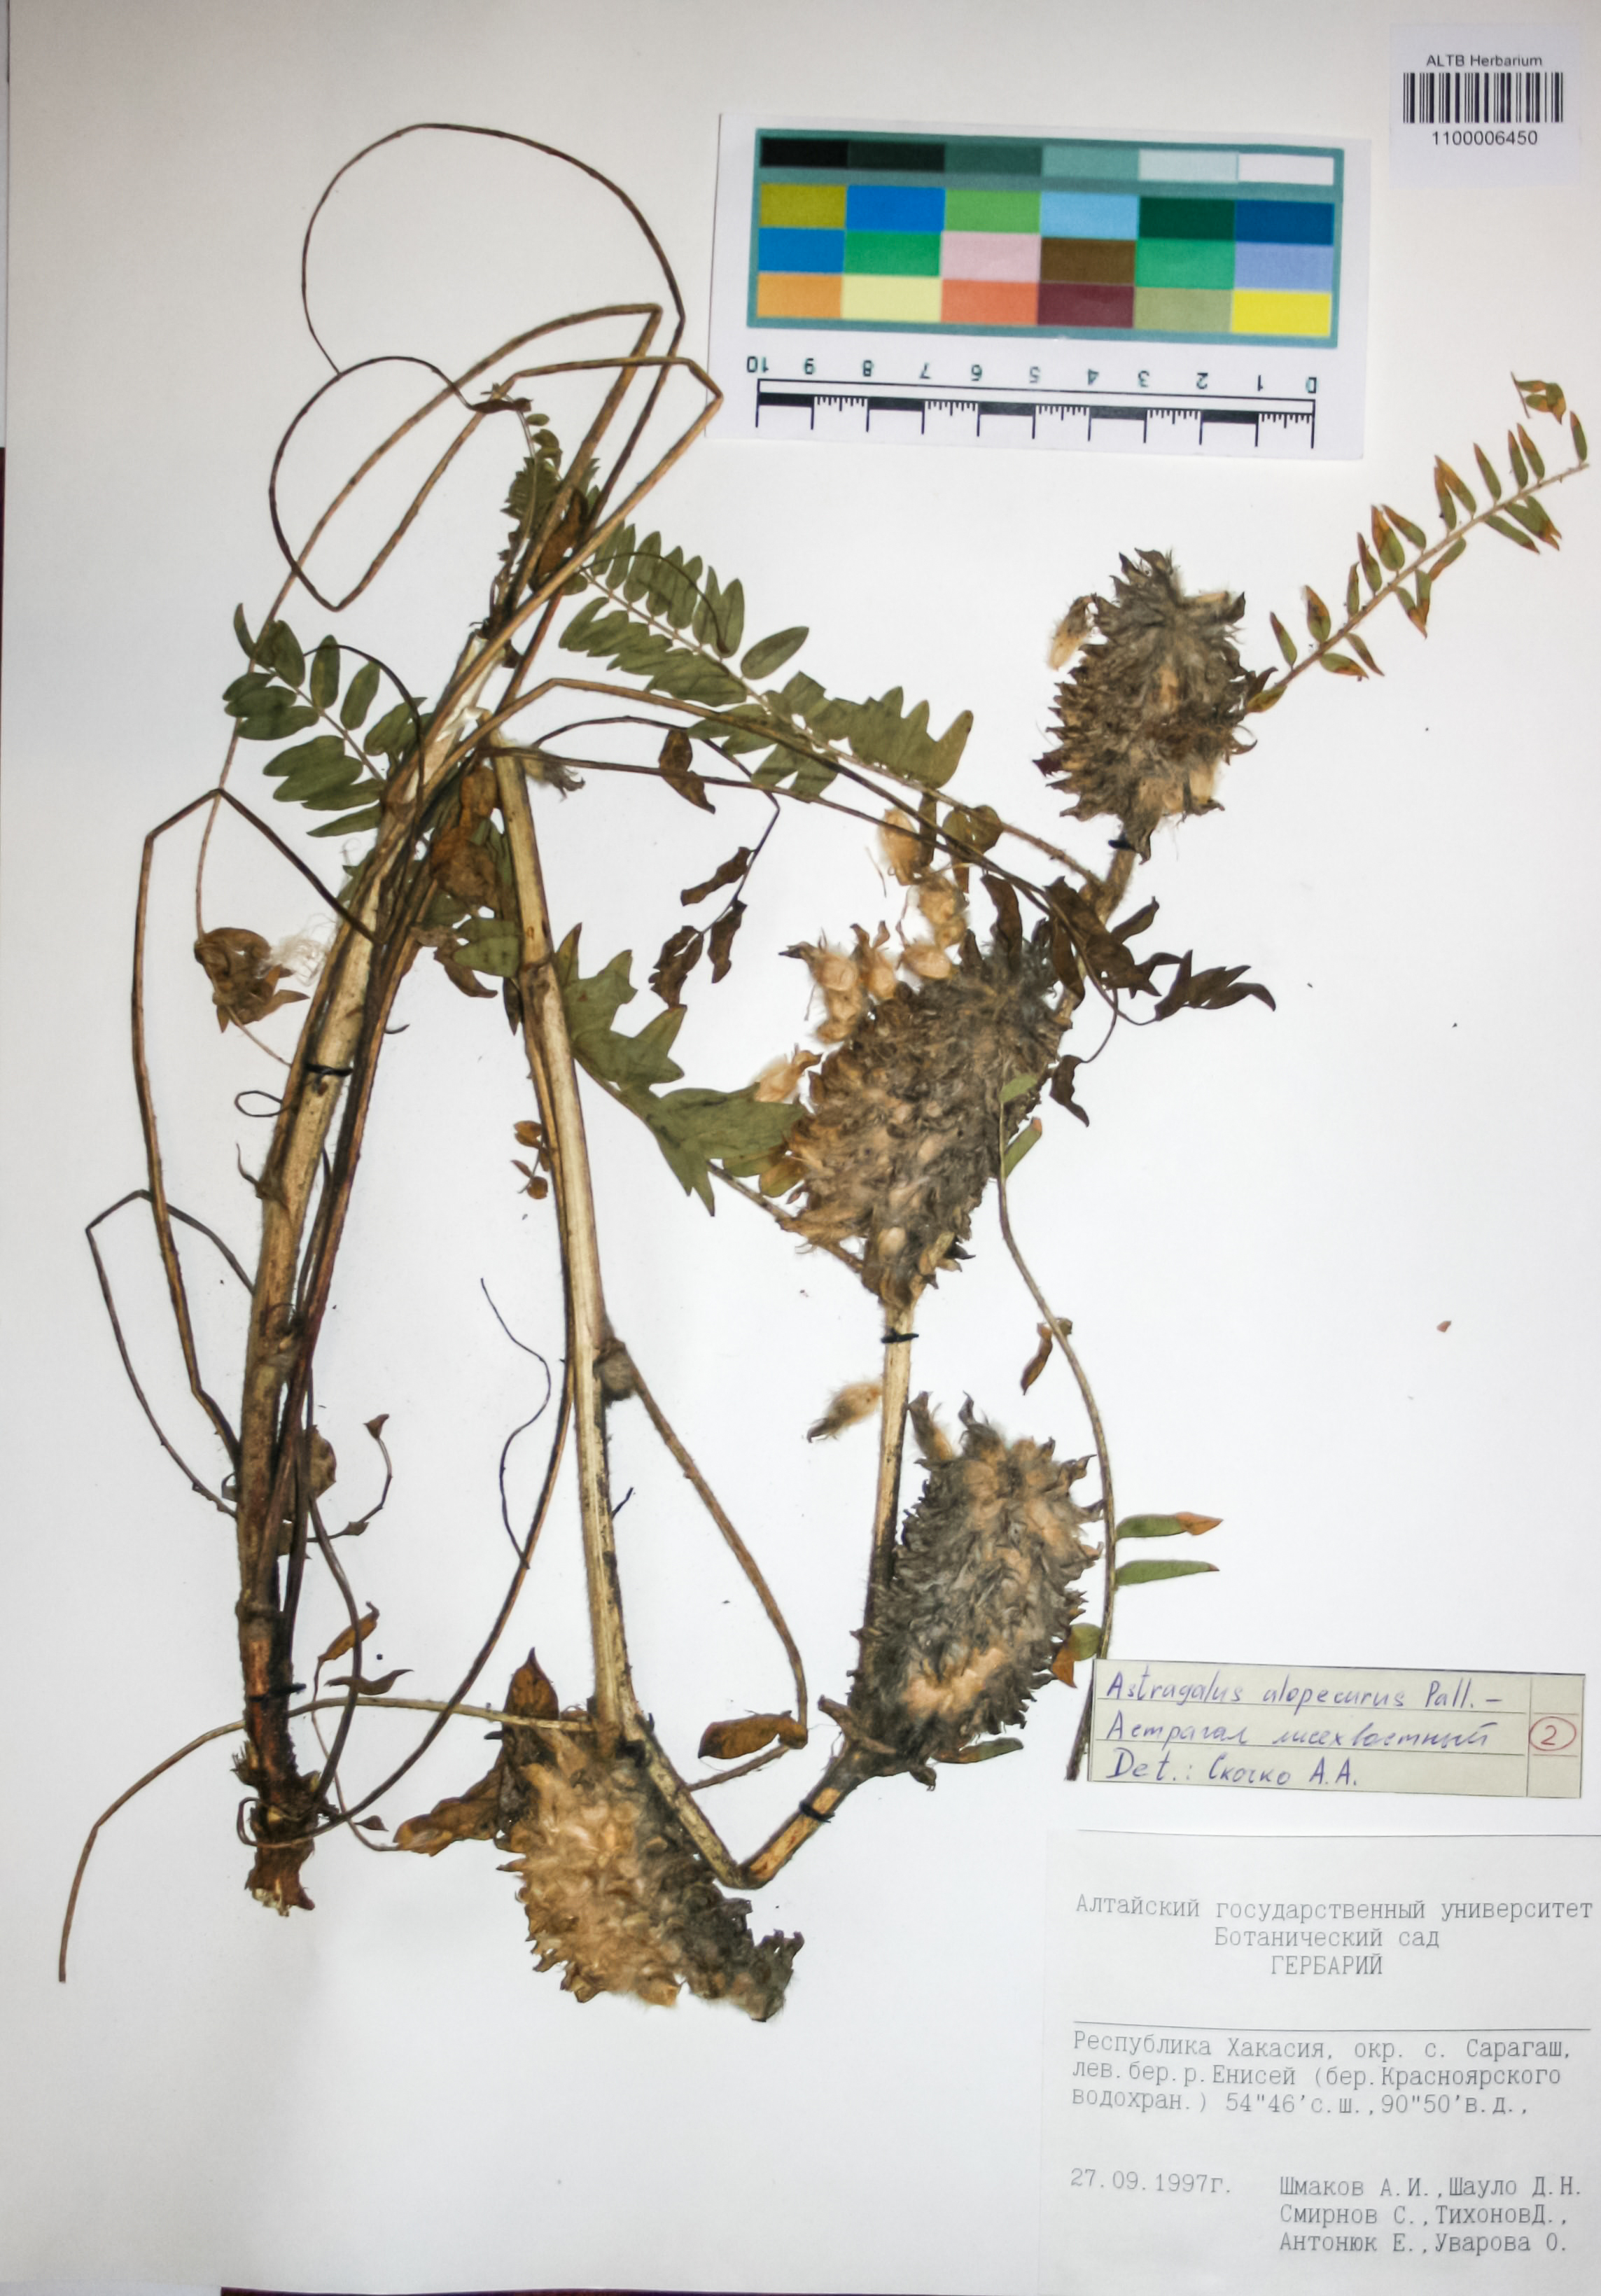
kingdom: Plantae
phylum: Tracheophyta
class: Magnoliopsida
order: Fabales
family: Fabaceae
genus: Astragalus
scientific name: Astragalus alopecurus
